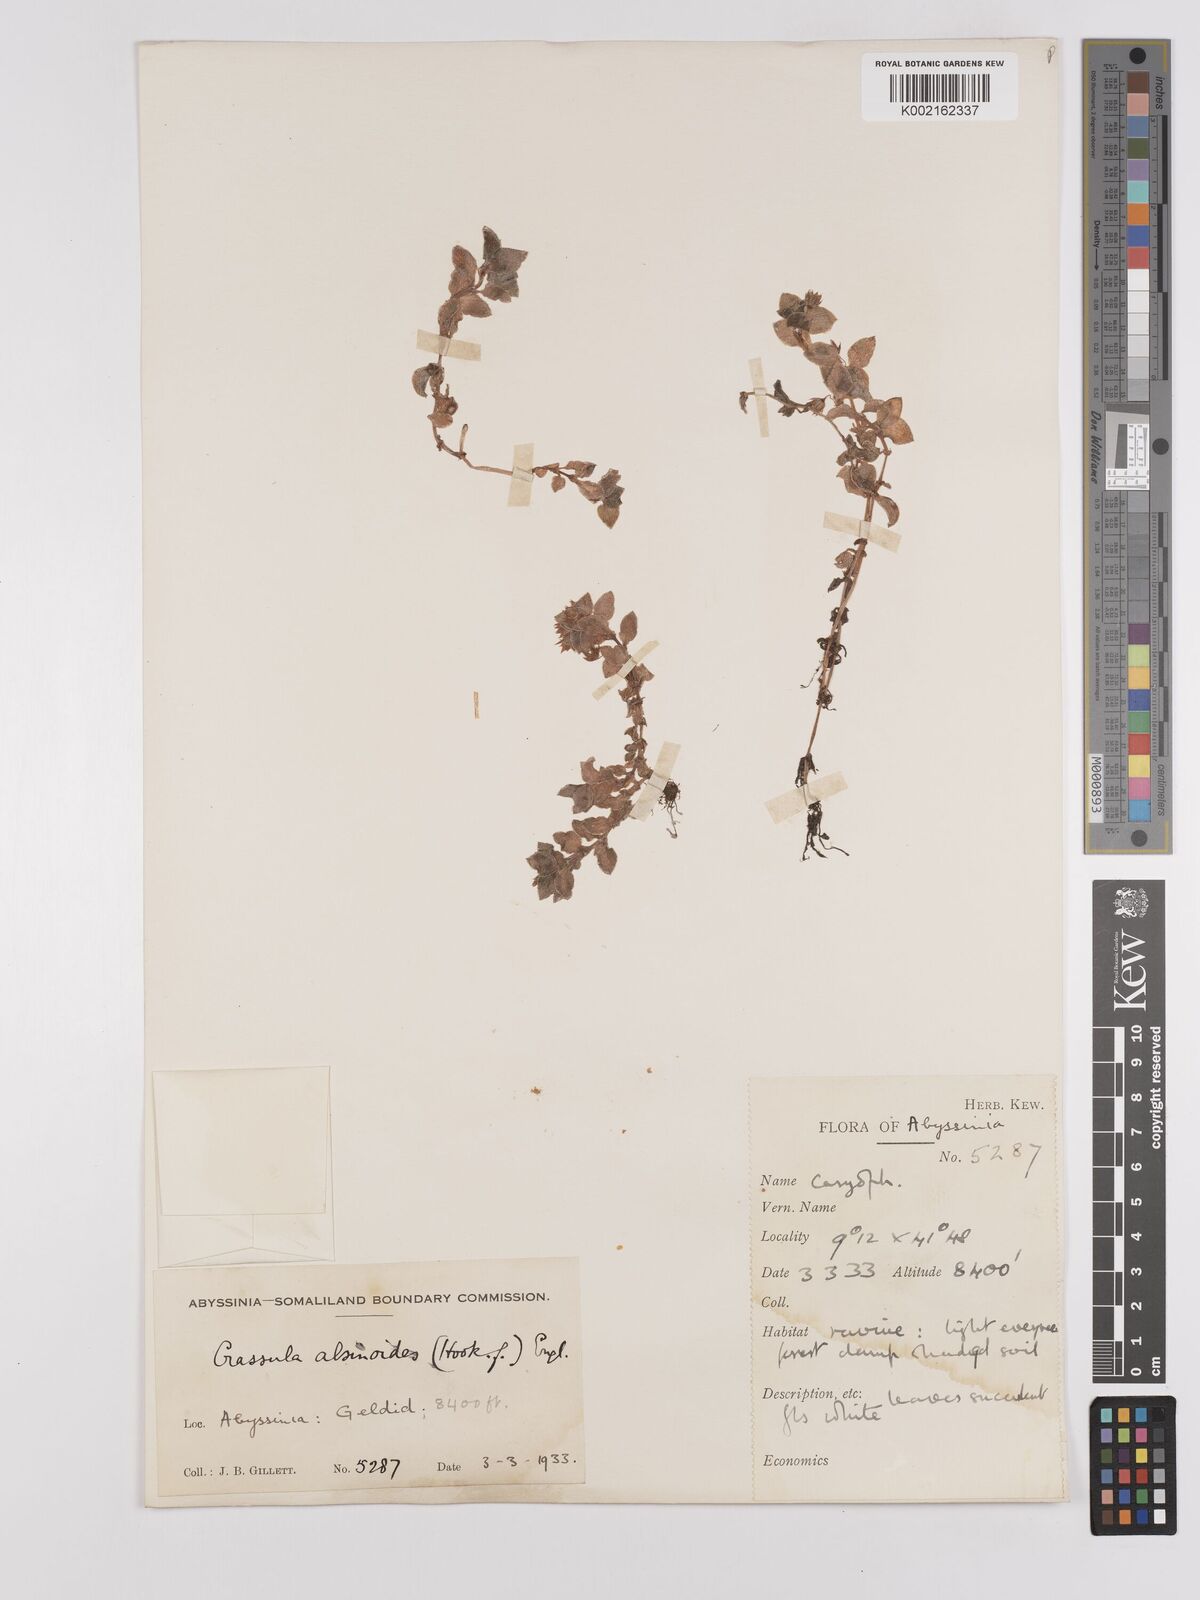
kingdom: Plantae
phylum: Tracheophyta
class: Magnoliopsida
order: Saxifragales
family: Crassulaceae
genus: Crassula
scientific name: Crassula alsinoides
